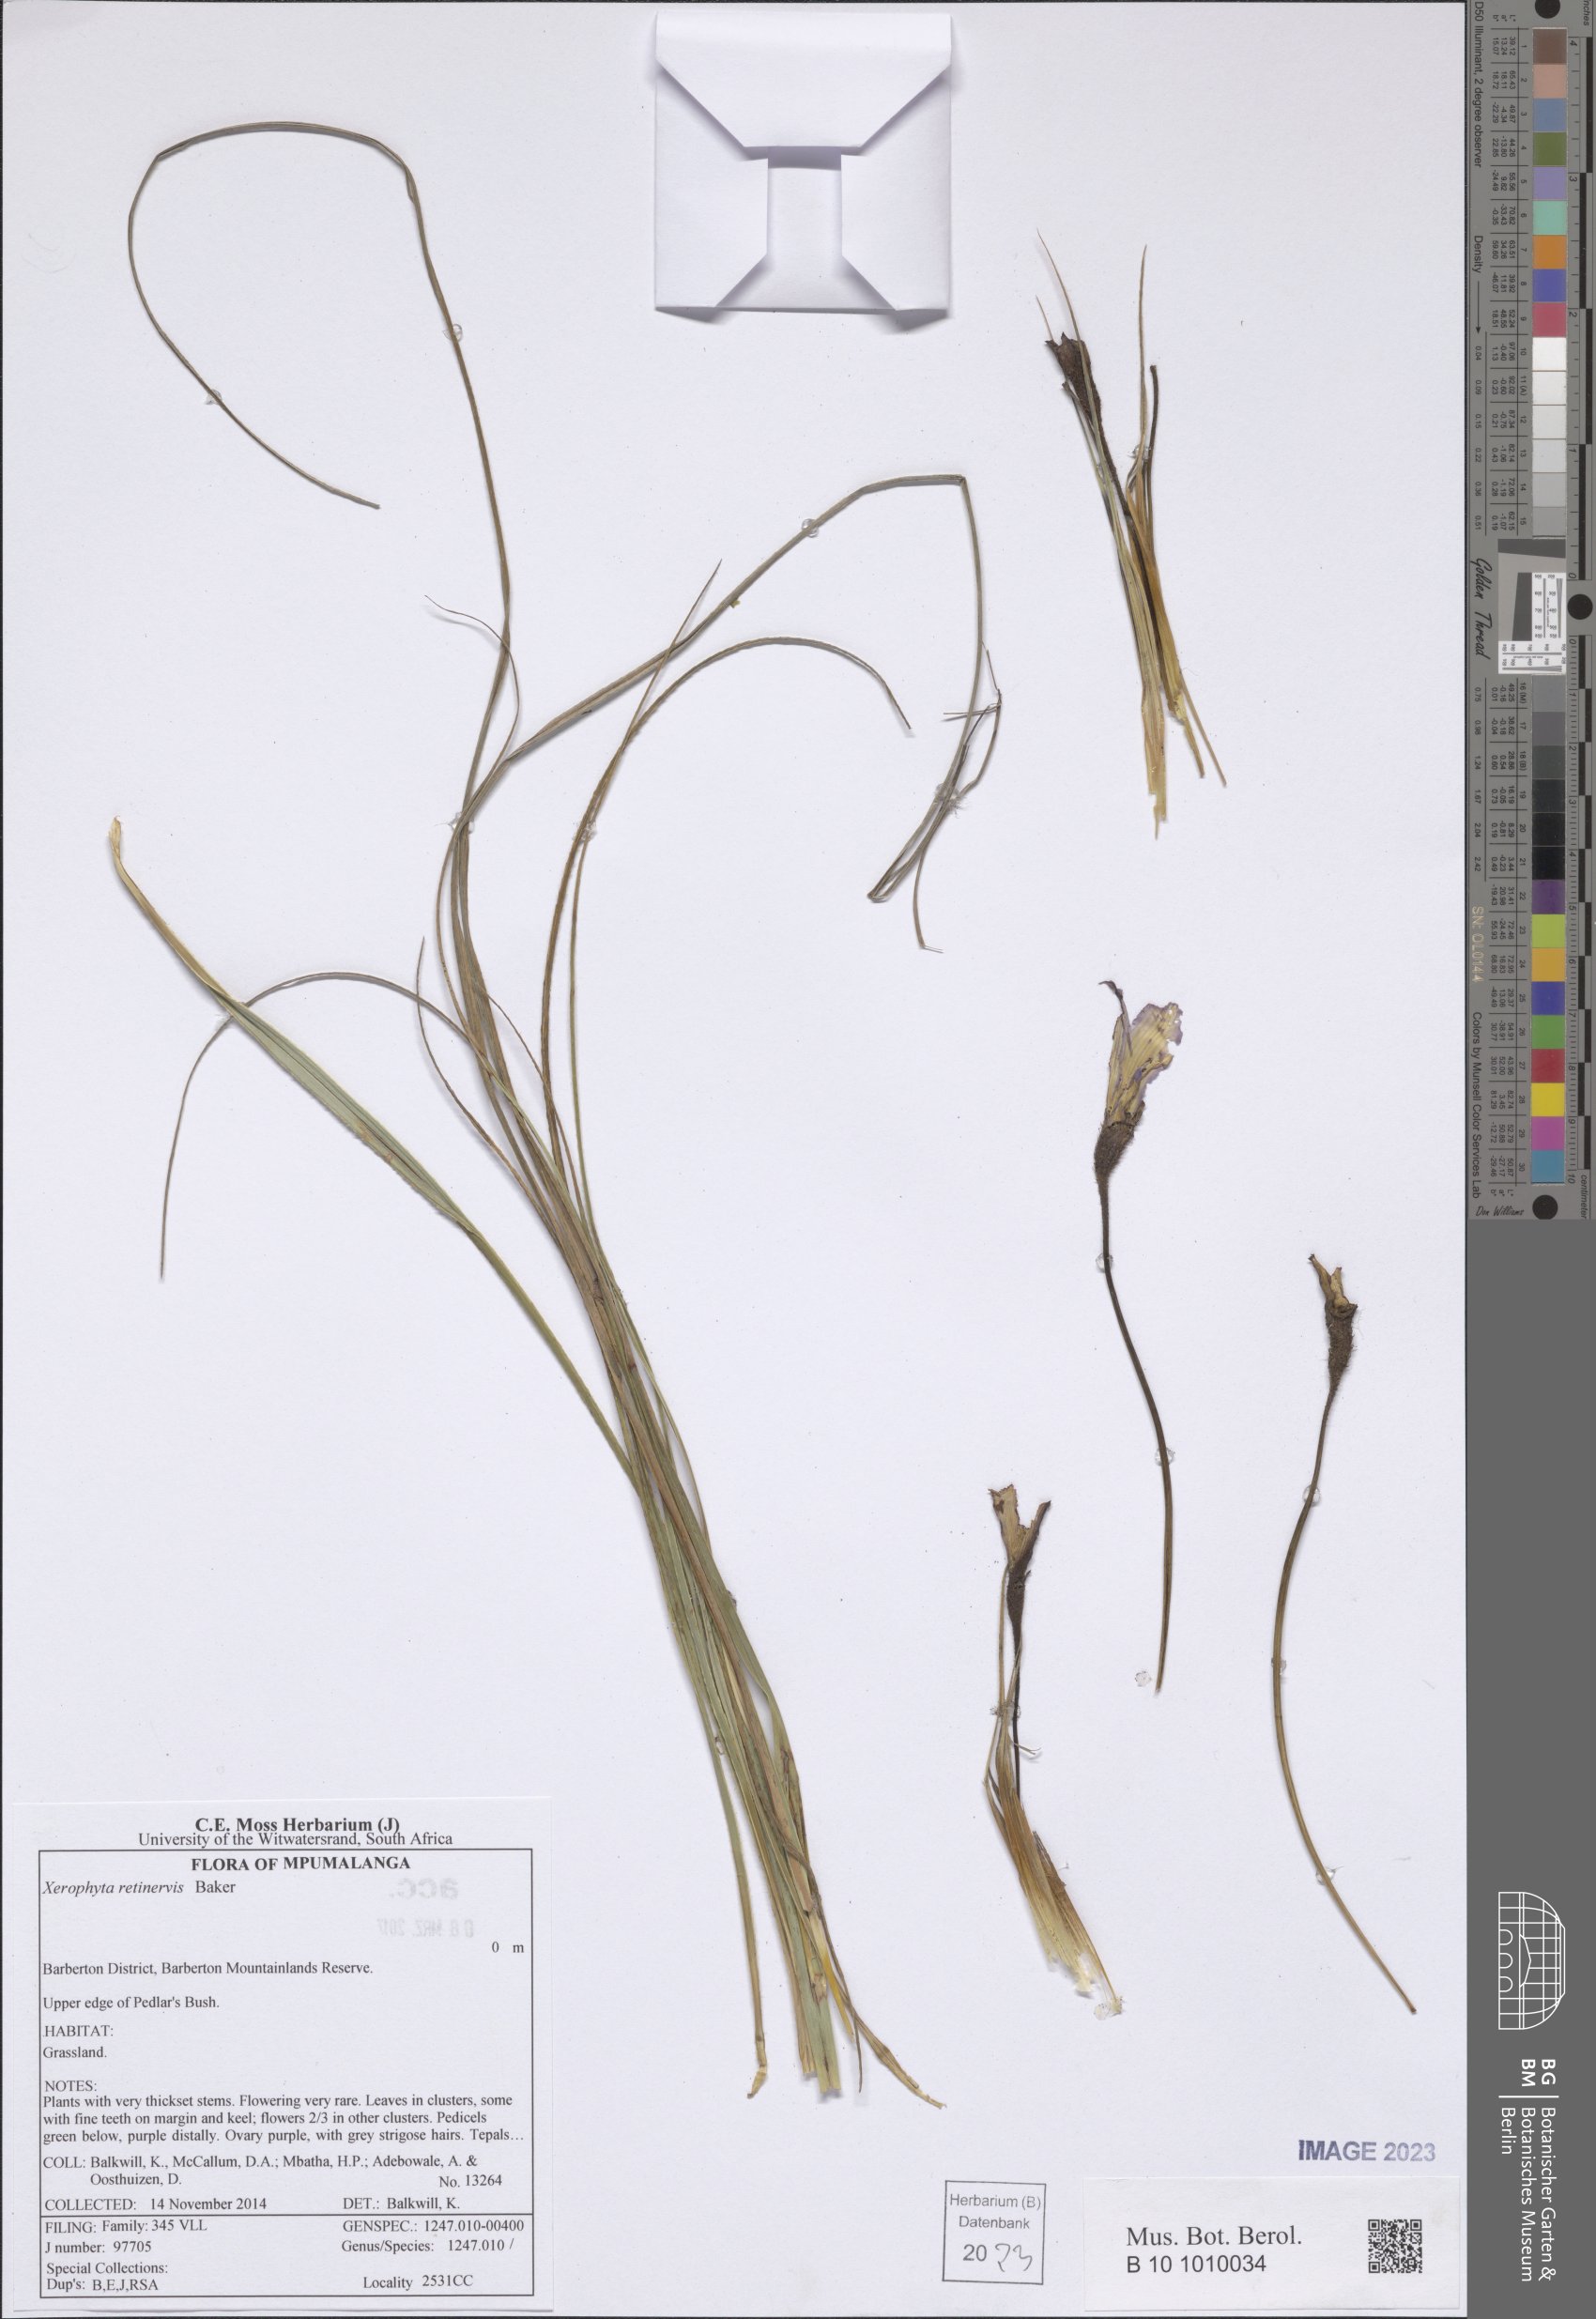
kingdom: Plantae
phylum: Tracheophyta
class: Liliopsida
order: Pandanales
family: Velloziaceae
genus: Xerophyta
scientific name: Xerophyta retinervis
